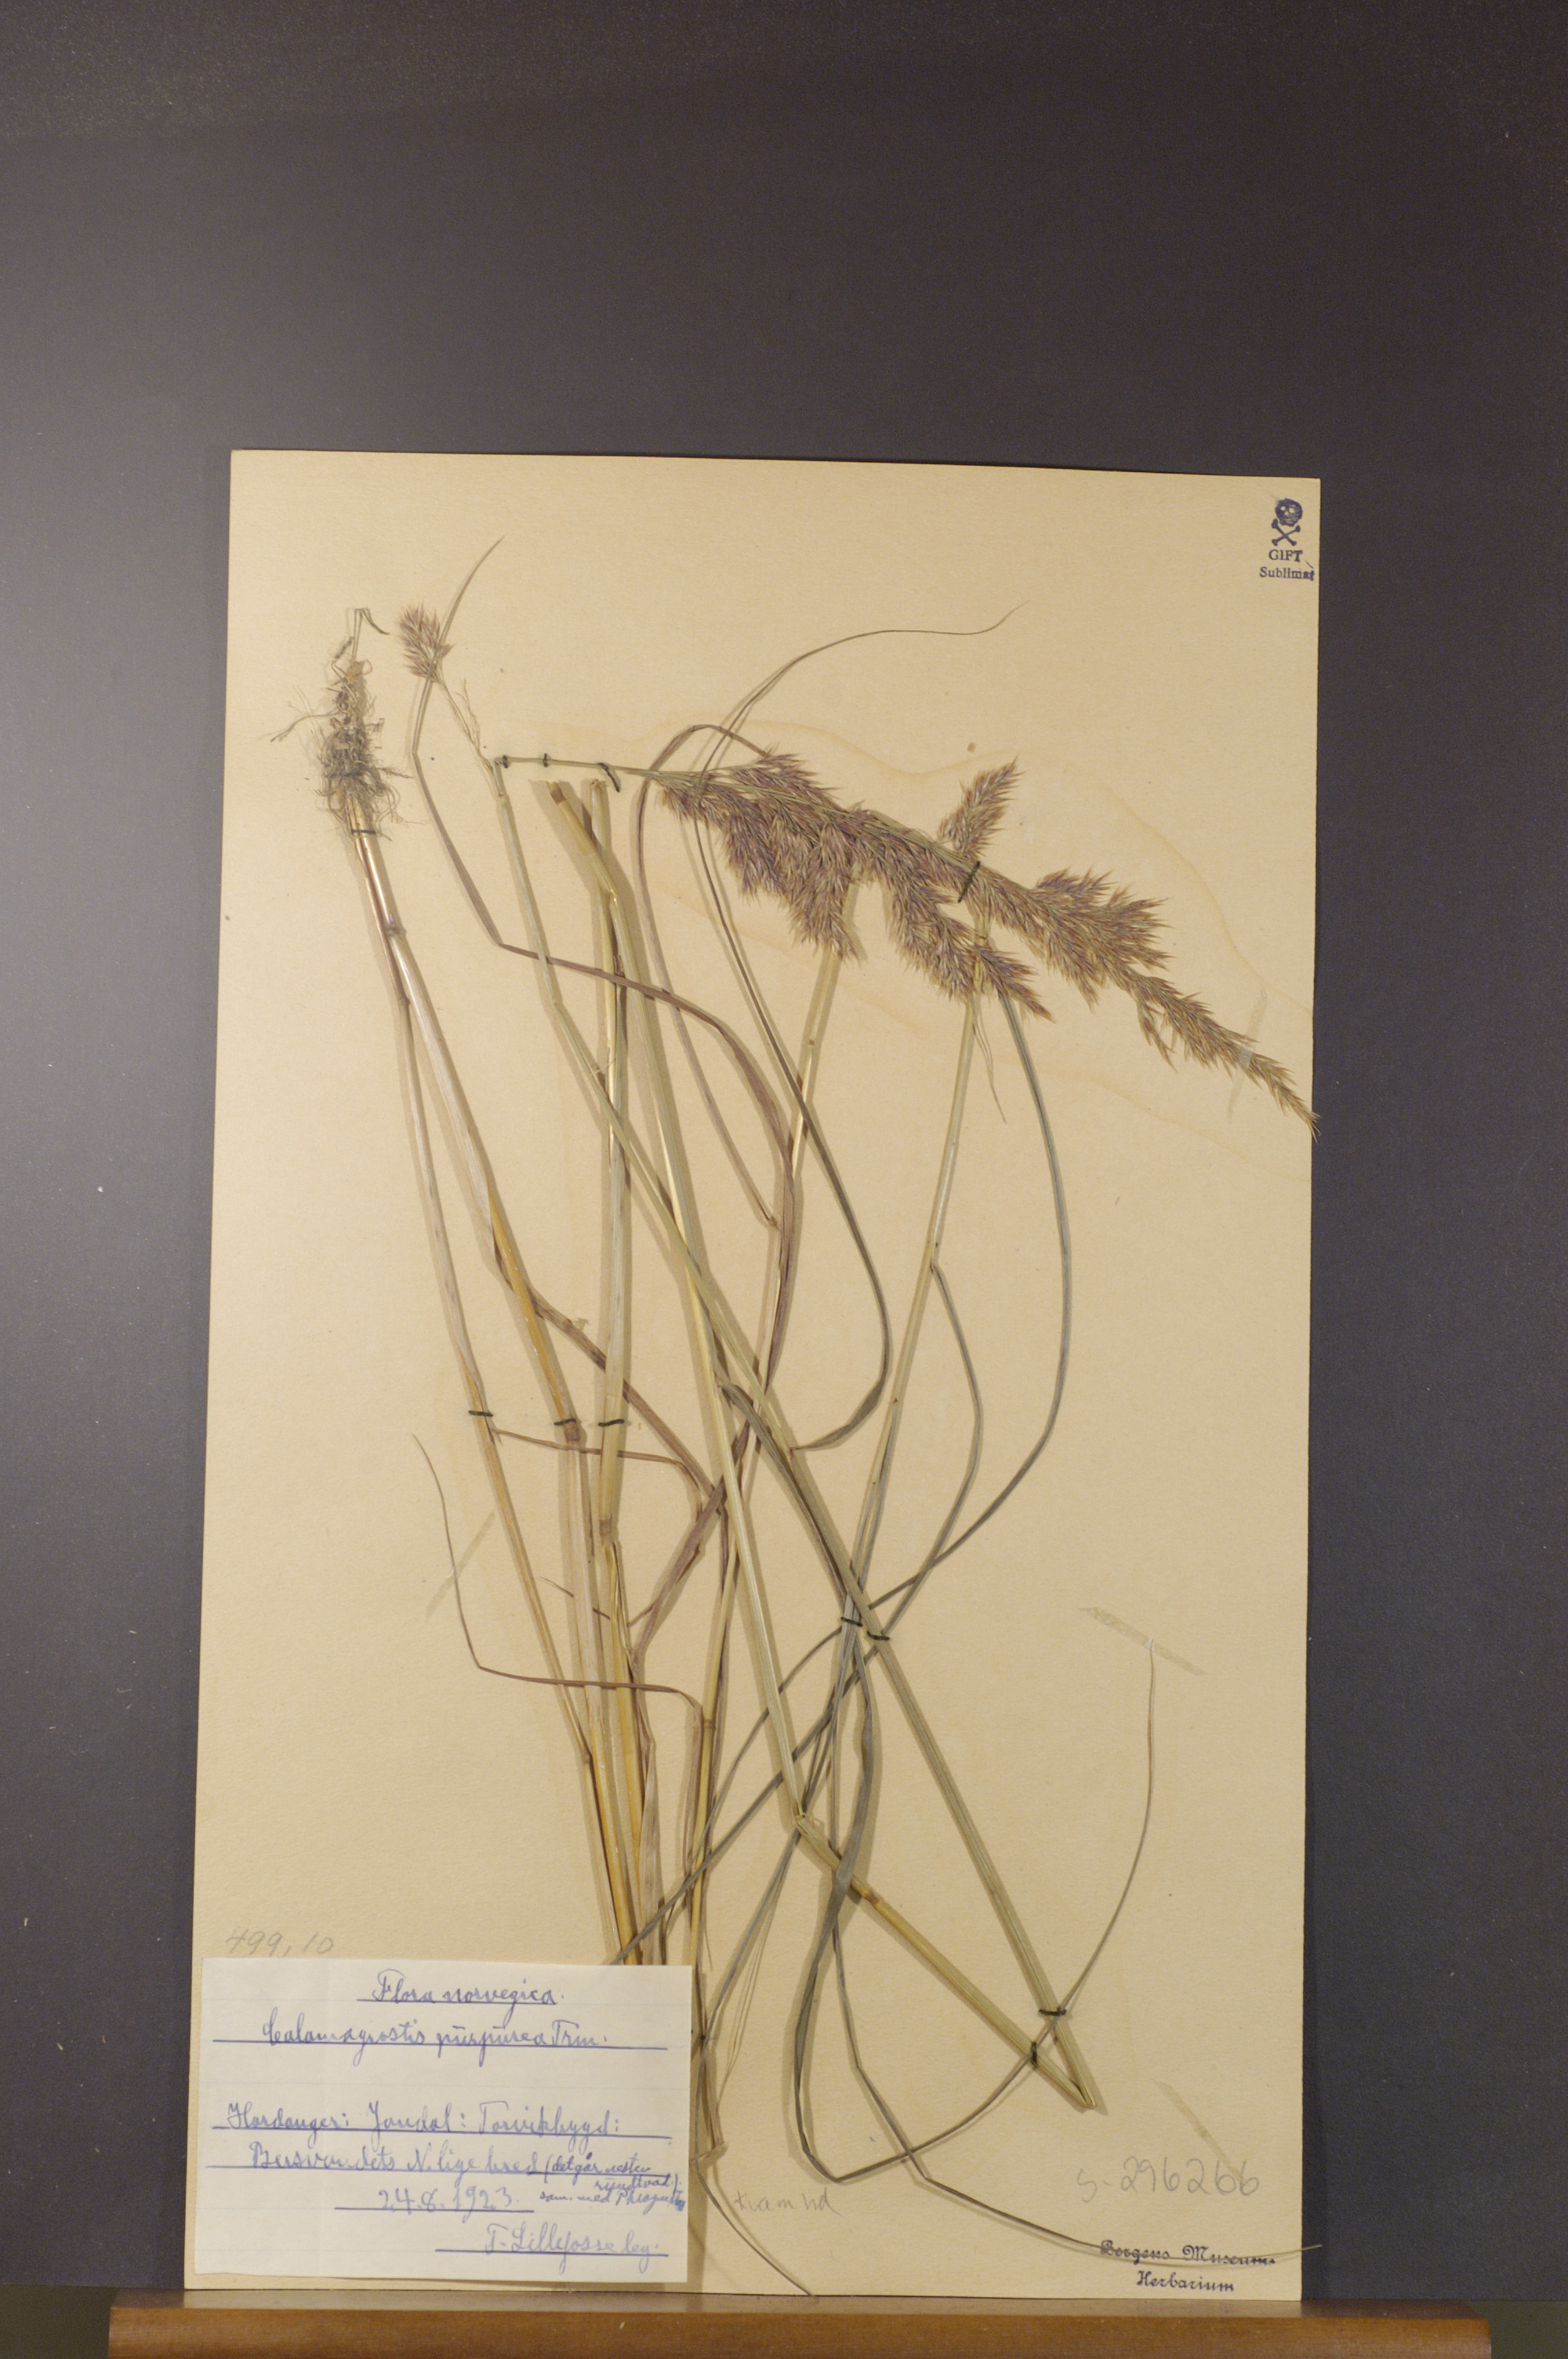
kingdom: Plantae
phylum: Tracheophyta
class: Liliopsida
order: Poales
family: Poaceae
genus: Calamagrostis
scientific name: Calamagrostis purpurea
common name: Scandinavian small-reed
